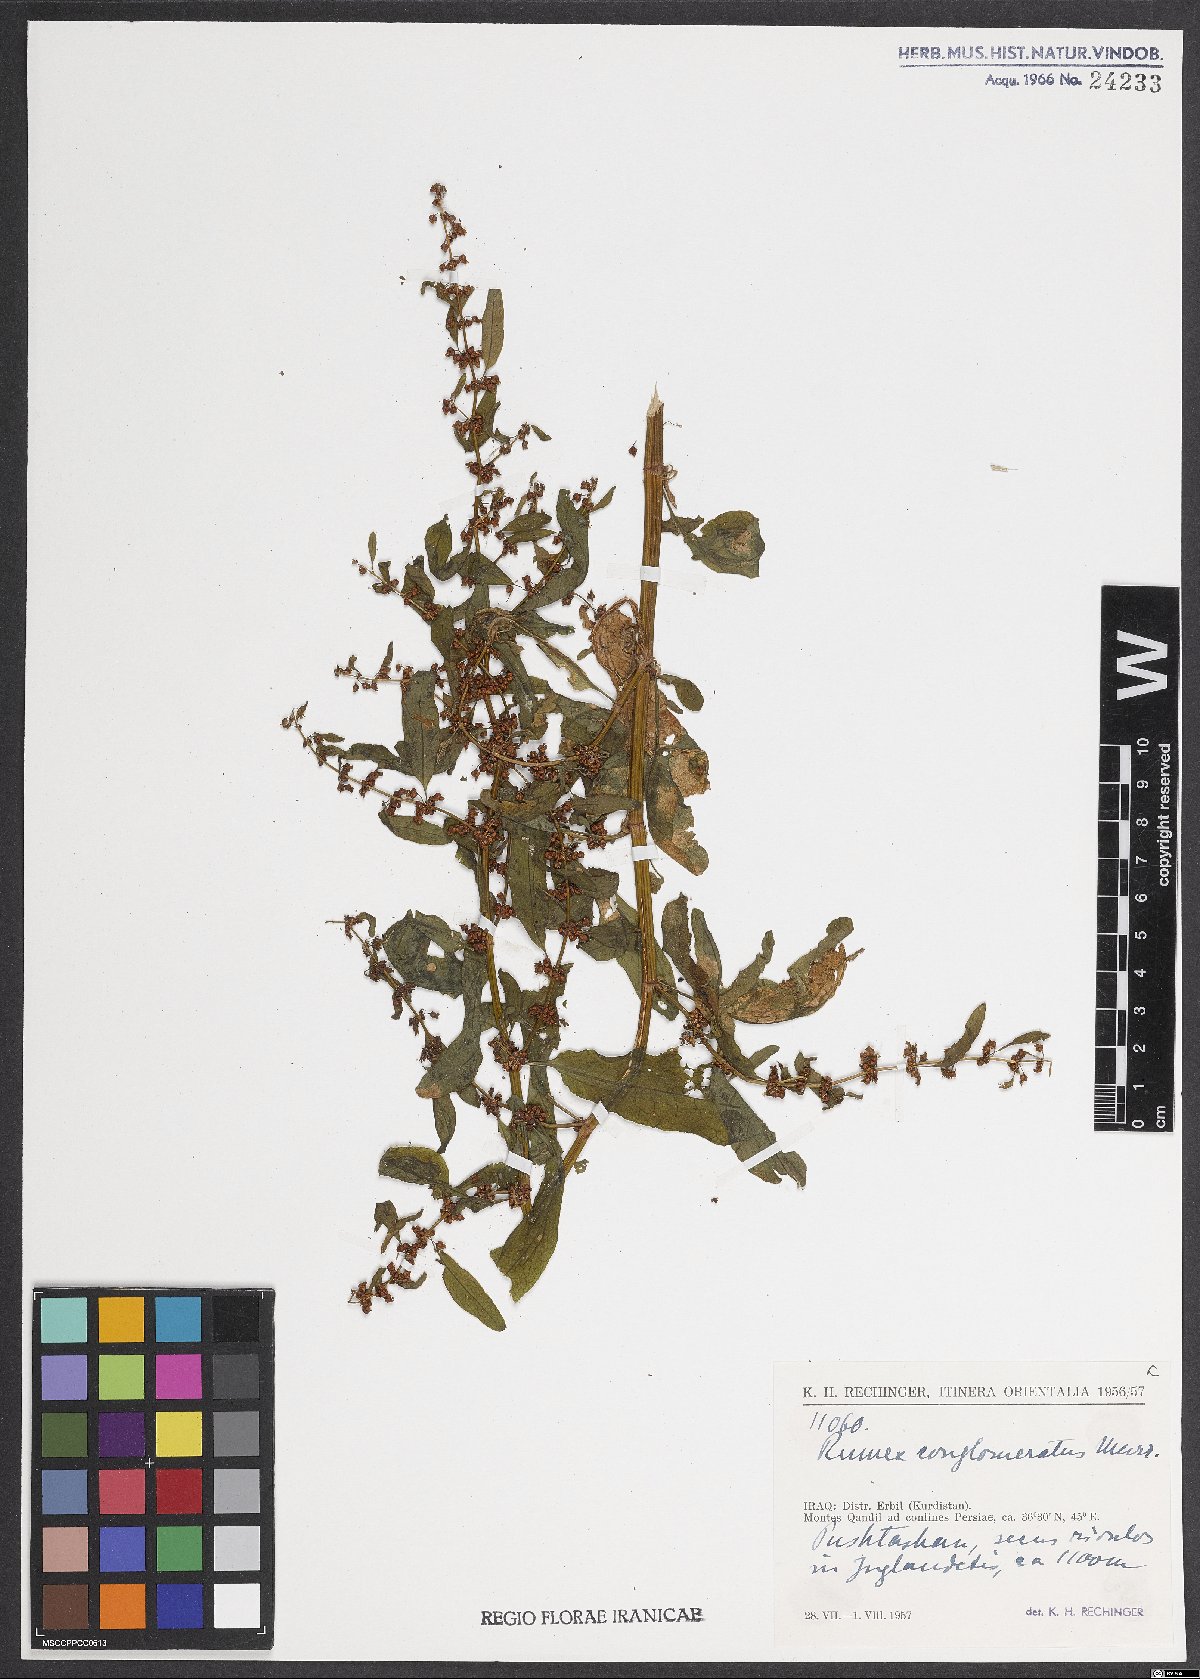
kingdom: Plantae
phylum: Tracheophyta
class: Magnoliopsida
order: Caryophyllales
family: Polygonaceae
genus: Rumex
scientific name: Rumex conglomeratus
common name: Clustered dock
